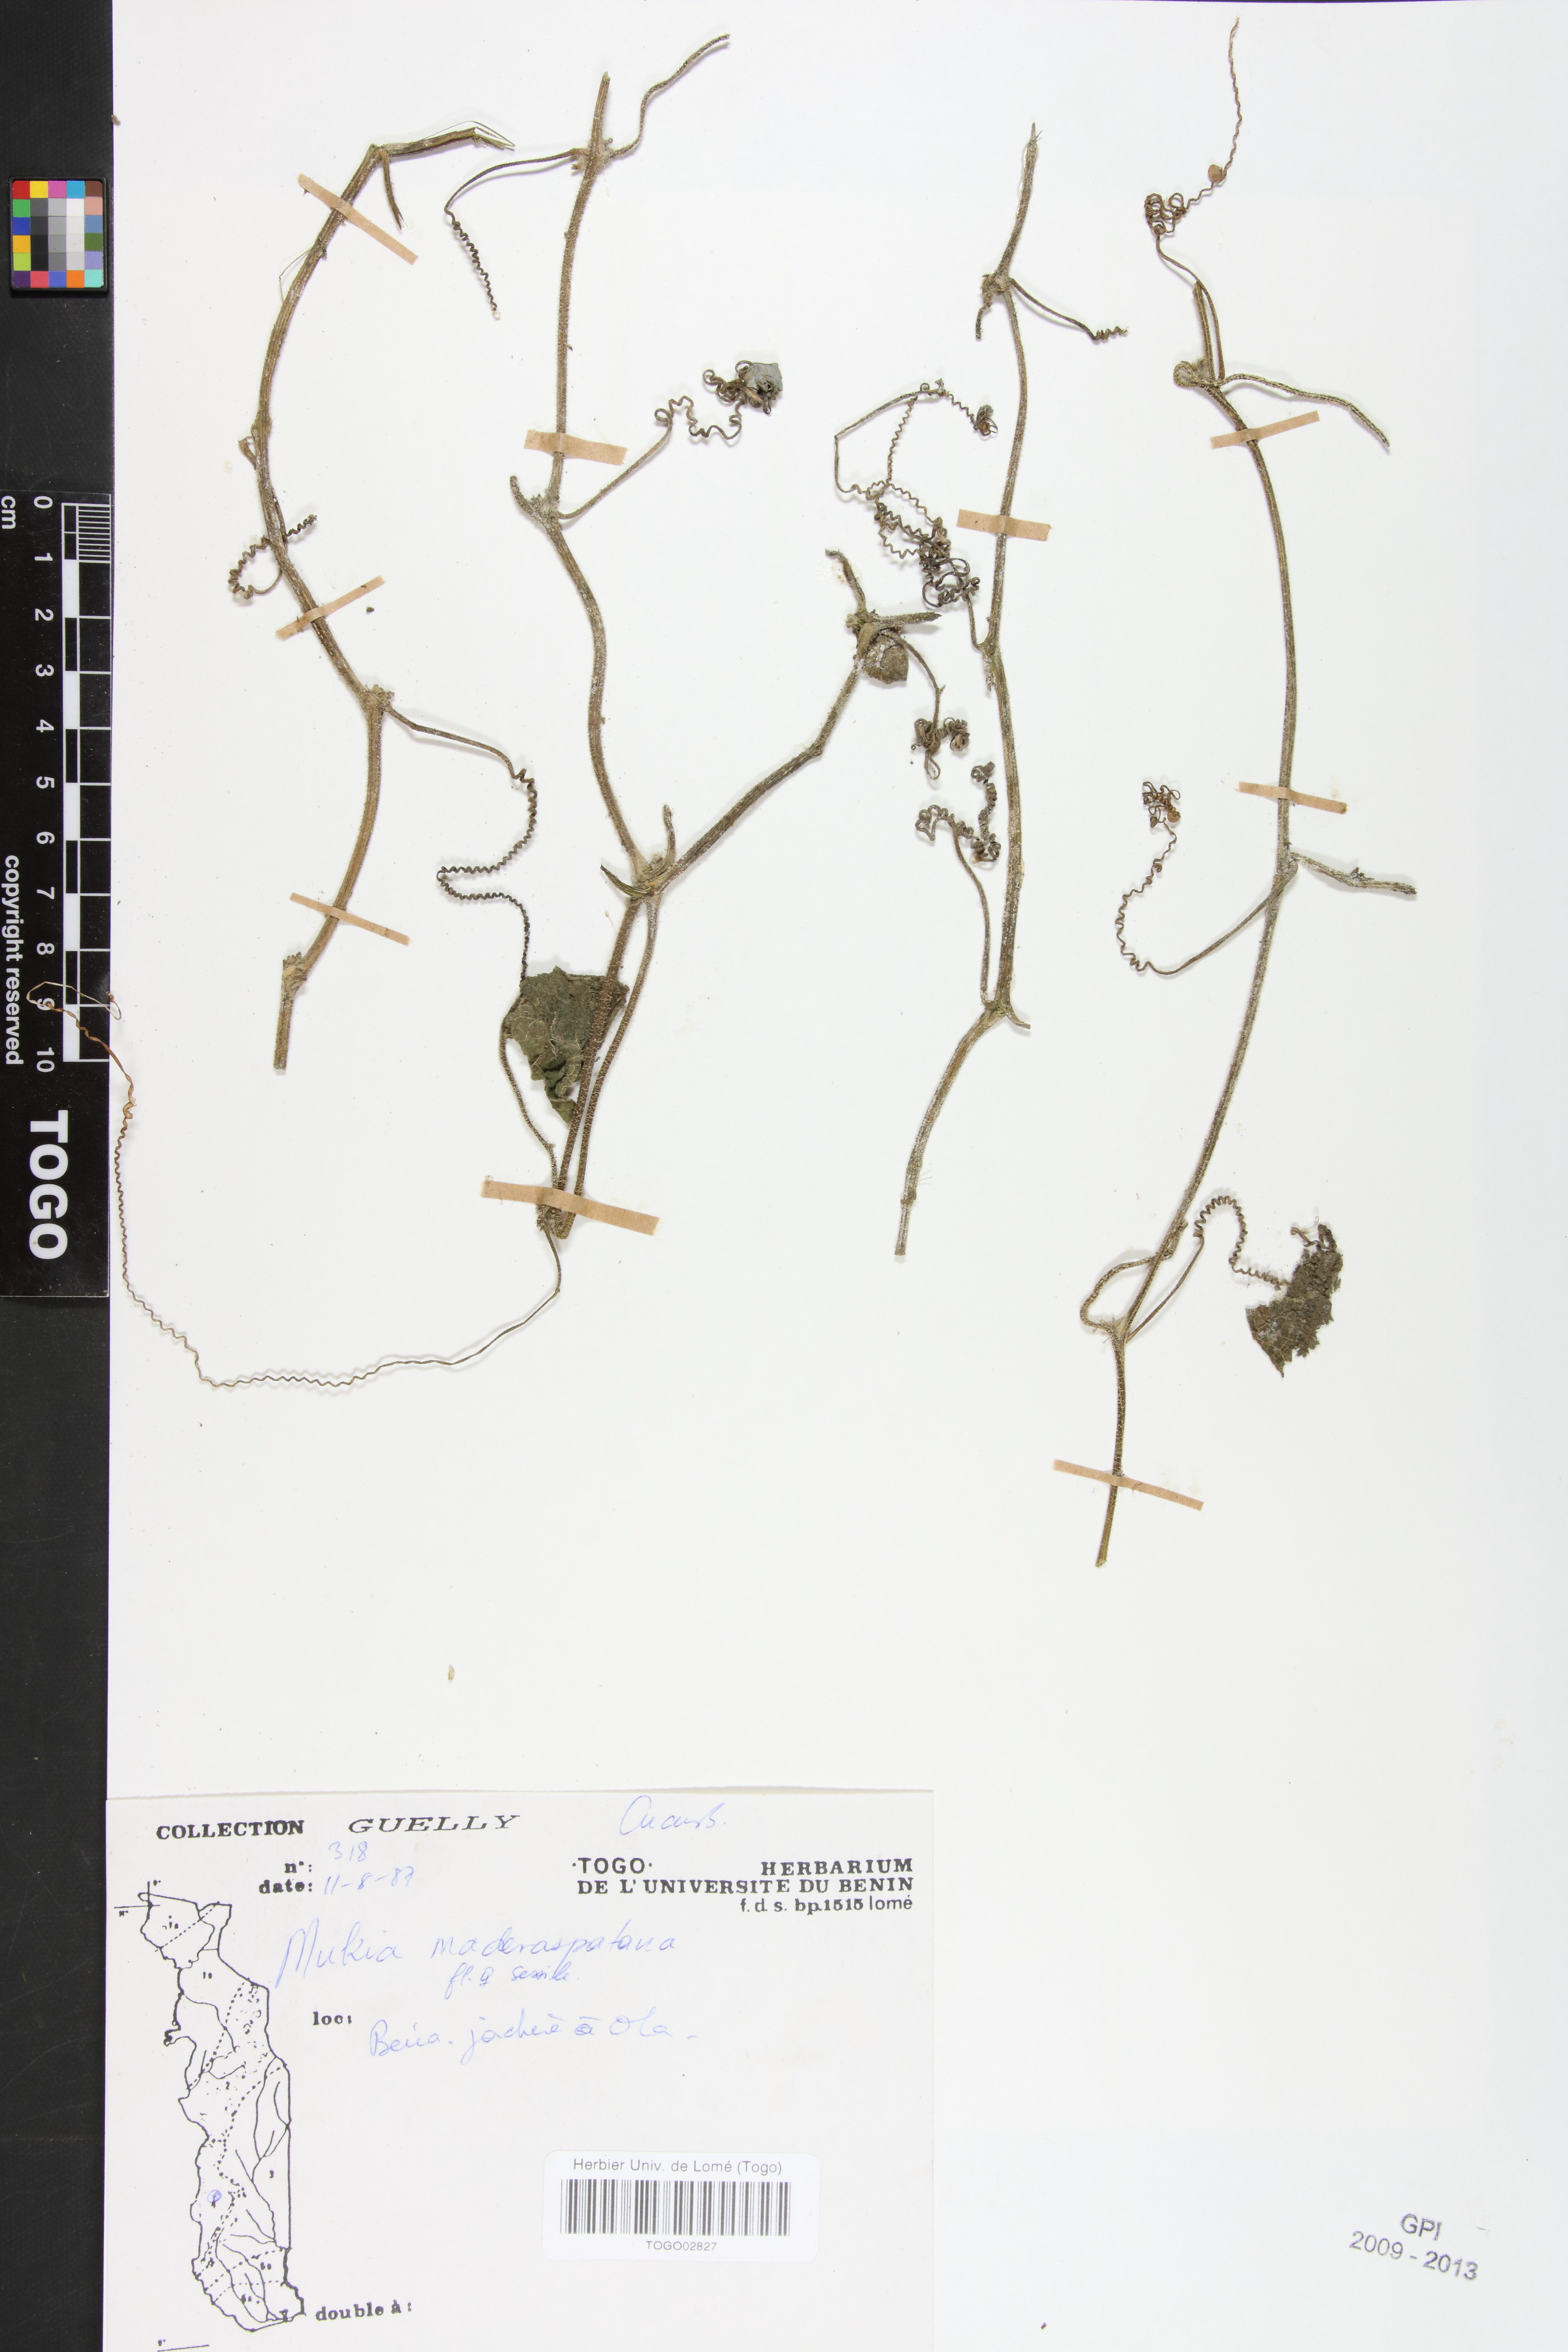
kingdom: Plantae
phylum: Tracheophyta
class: Magnoliopsida
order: Cucurbitales
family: Cucurbitaceae
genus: Cucumis
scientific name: Cucumis maderaspatanus
